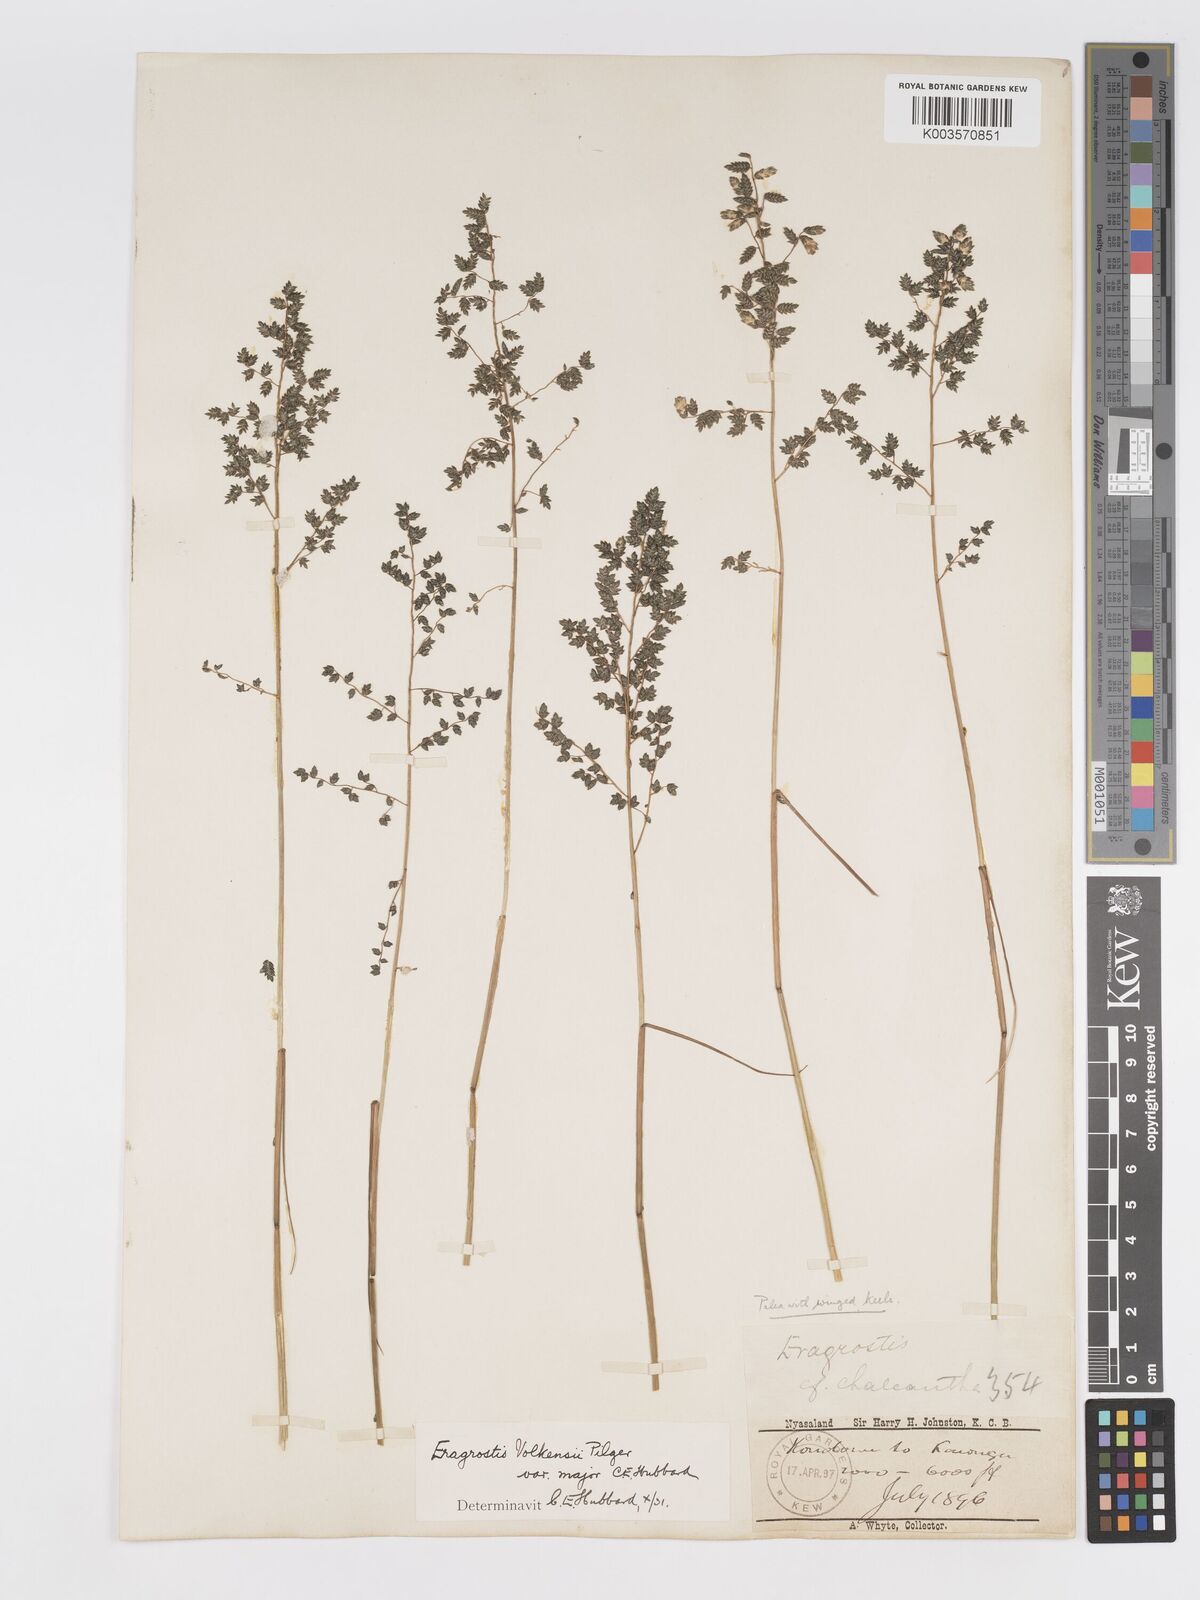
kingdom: Plantae
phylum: Tracheophyta
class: Liliopsida
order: Poales
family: Poaceae
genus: Eragrostis
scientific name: Eragrostis volkensii
